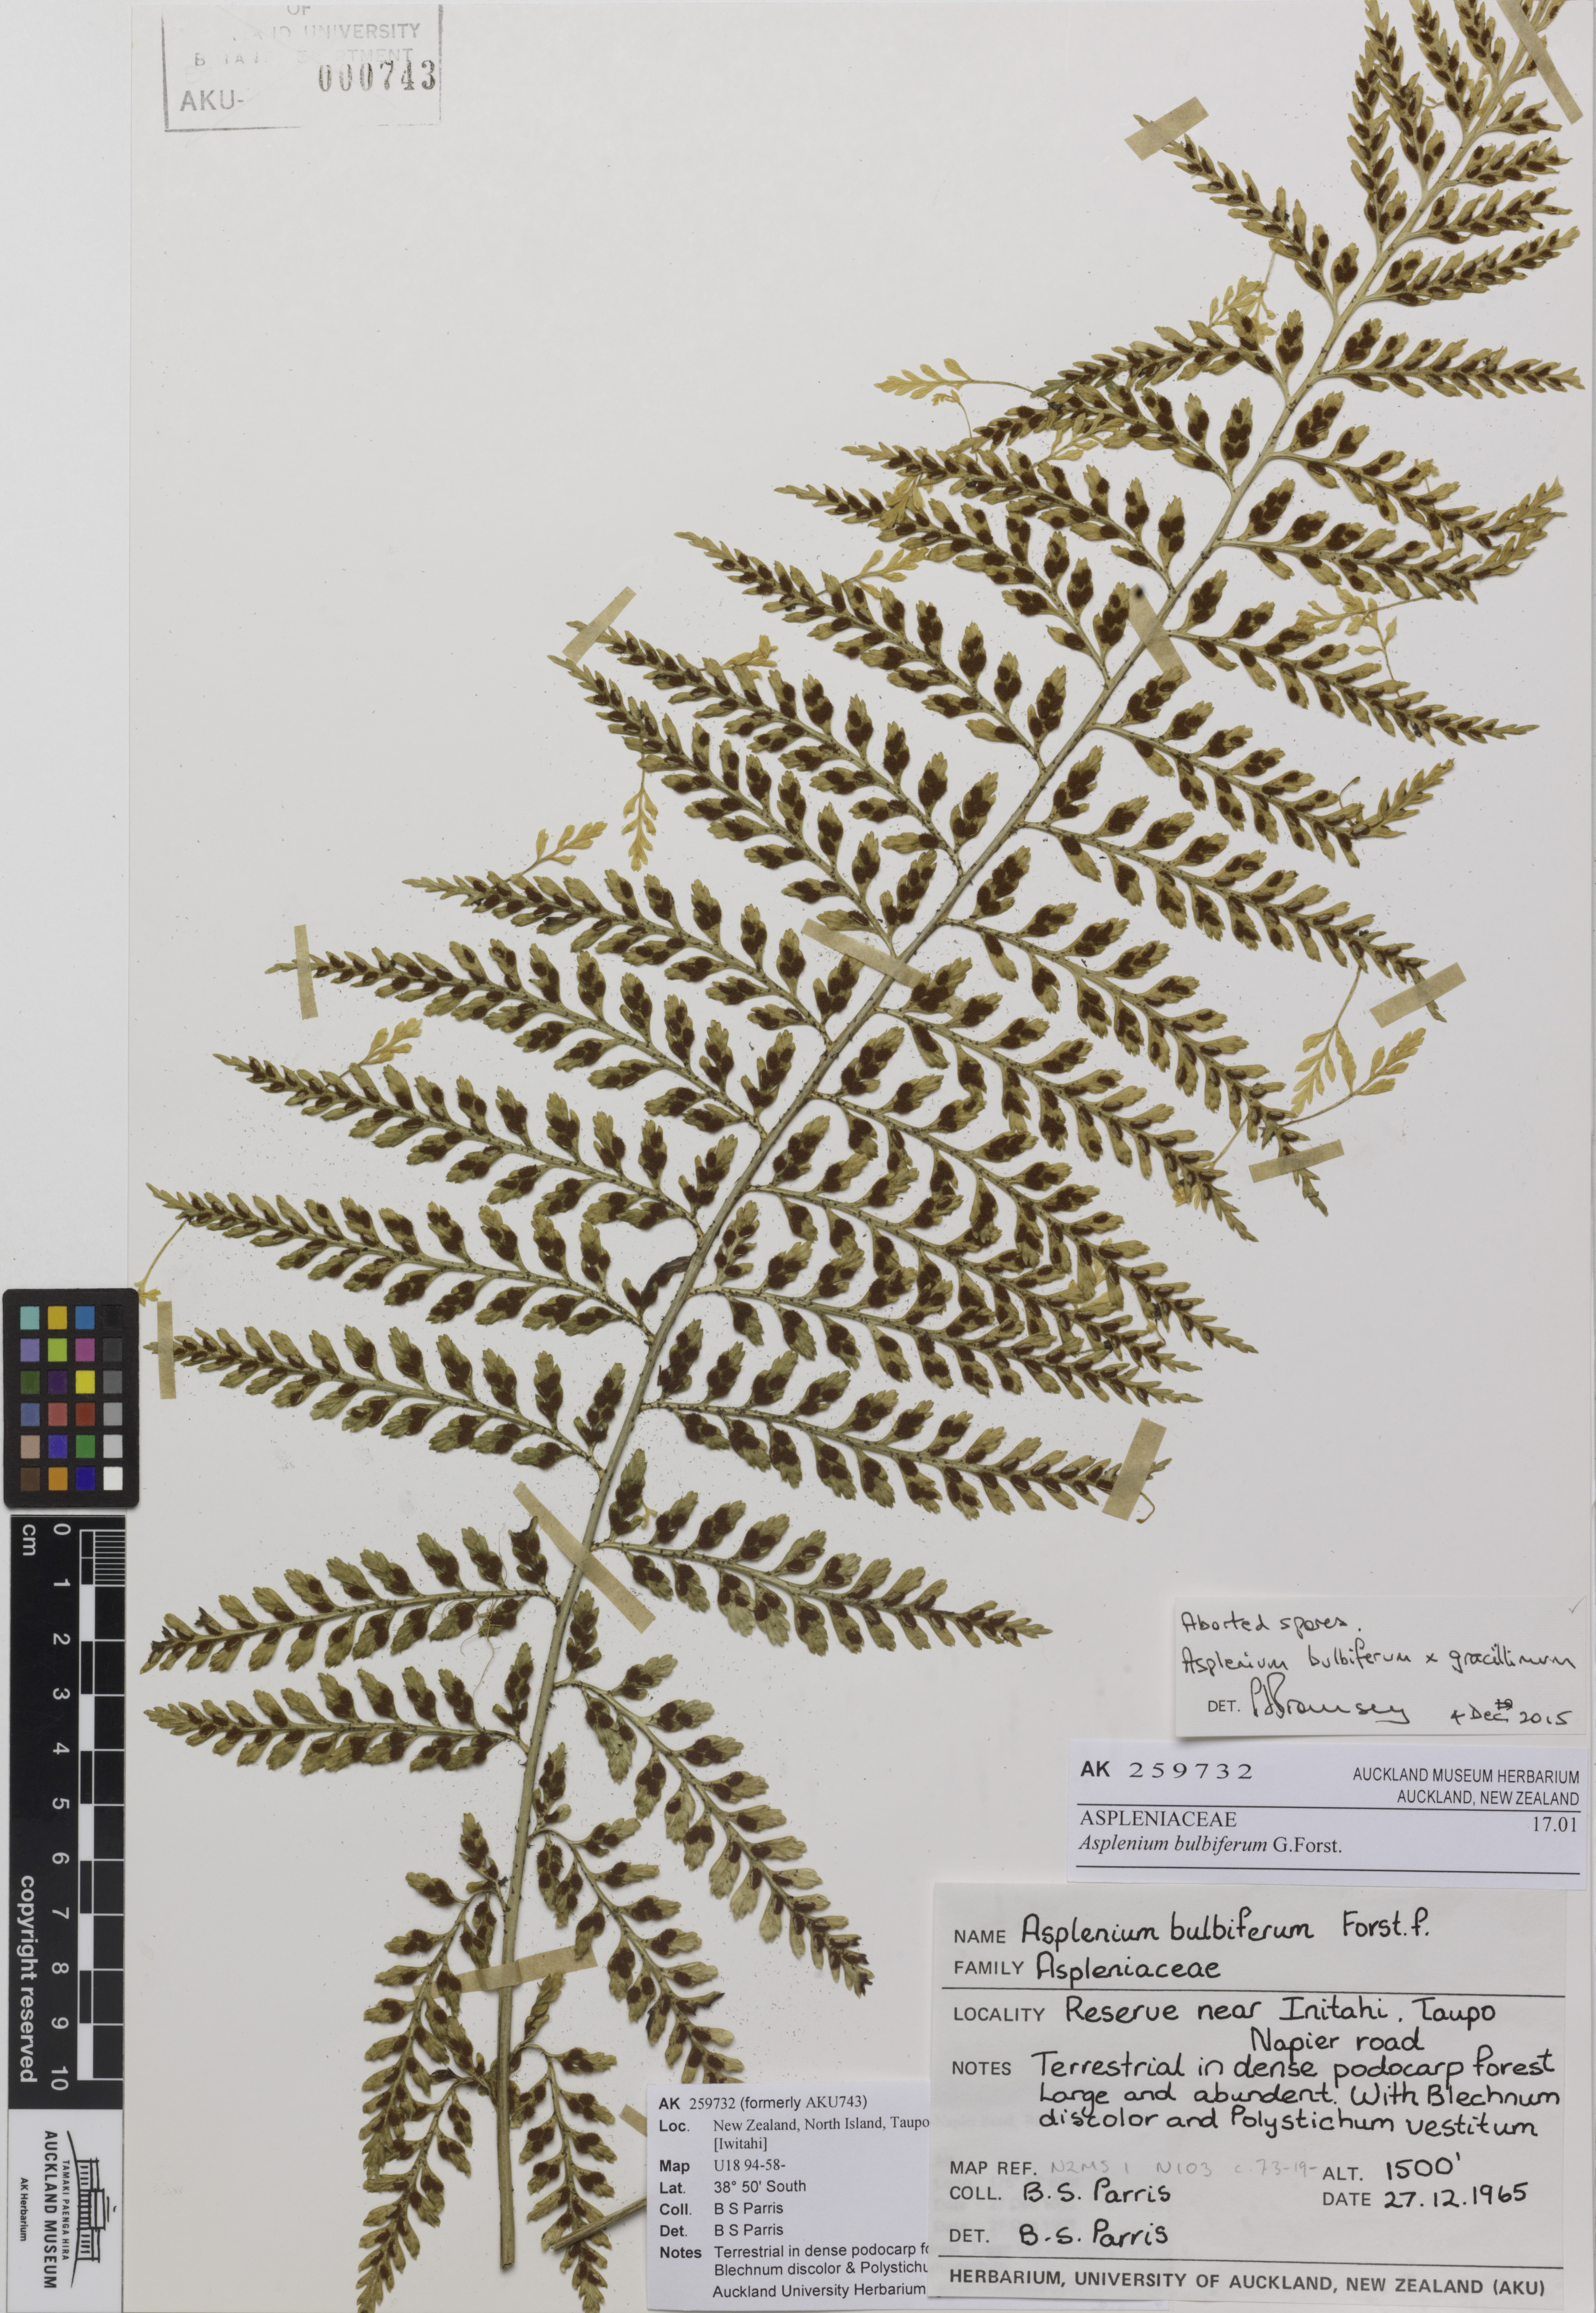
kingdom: Plantae
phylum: Tracheophyta
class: Polypodiopsida
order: Polypodiales
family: Aspleniaceae
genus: Asplenium
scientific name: Asplenium
